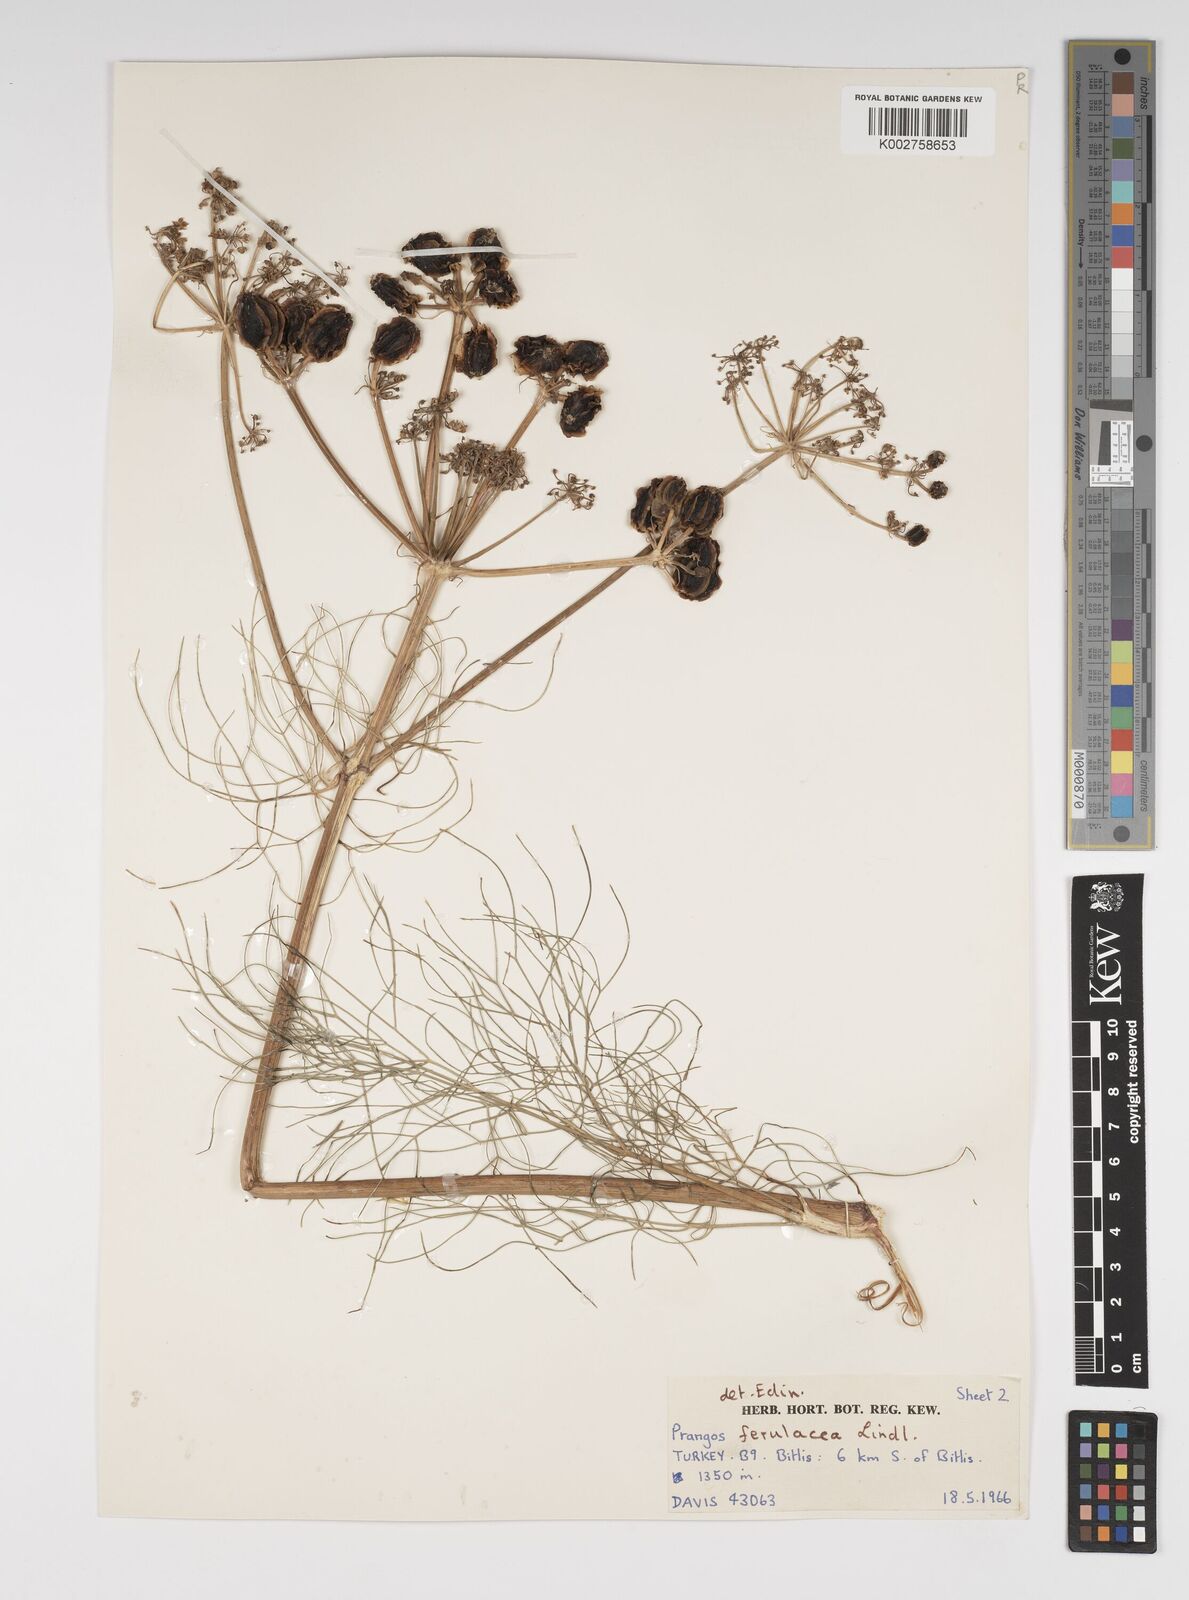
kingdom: Plantae
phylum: Tracheophyta
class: Magnoliopsida
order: Apiales
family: Apiaceae
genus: Prangos
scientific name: Prangos ferulacea
